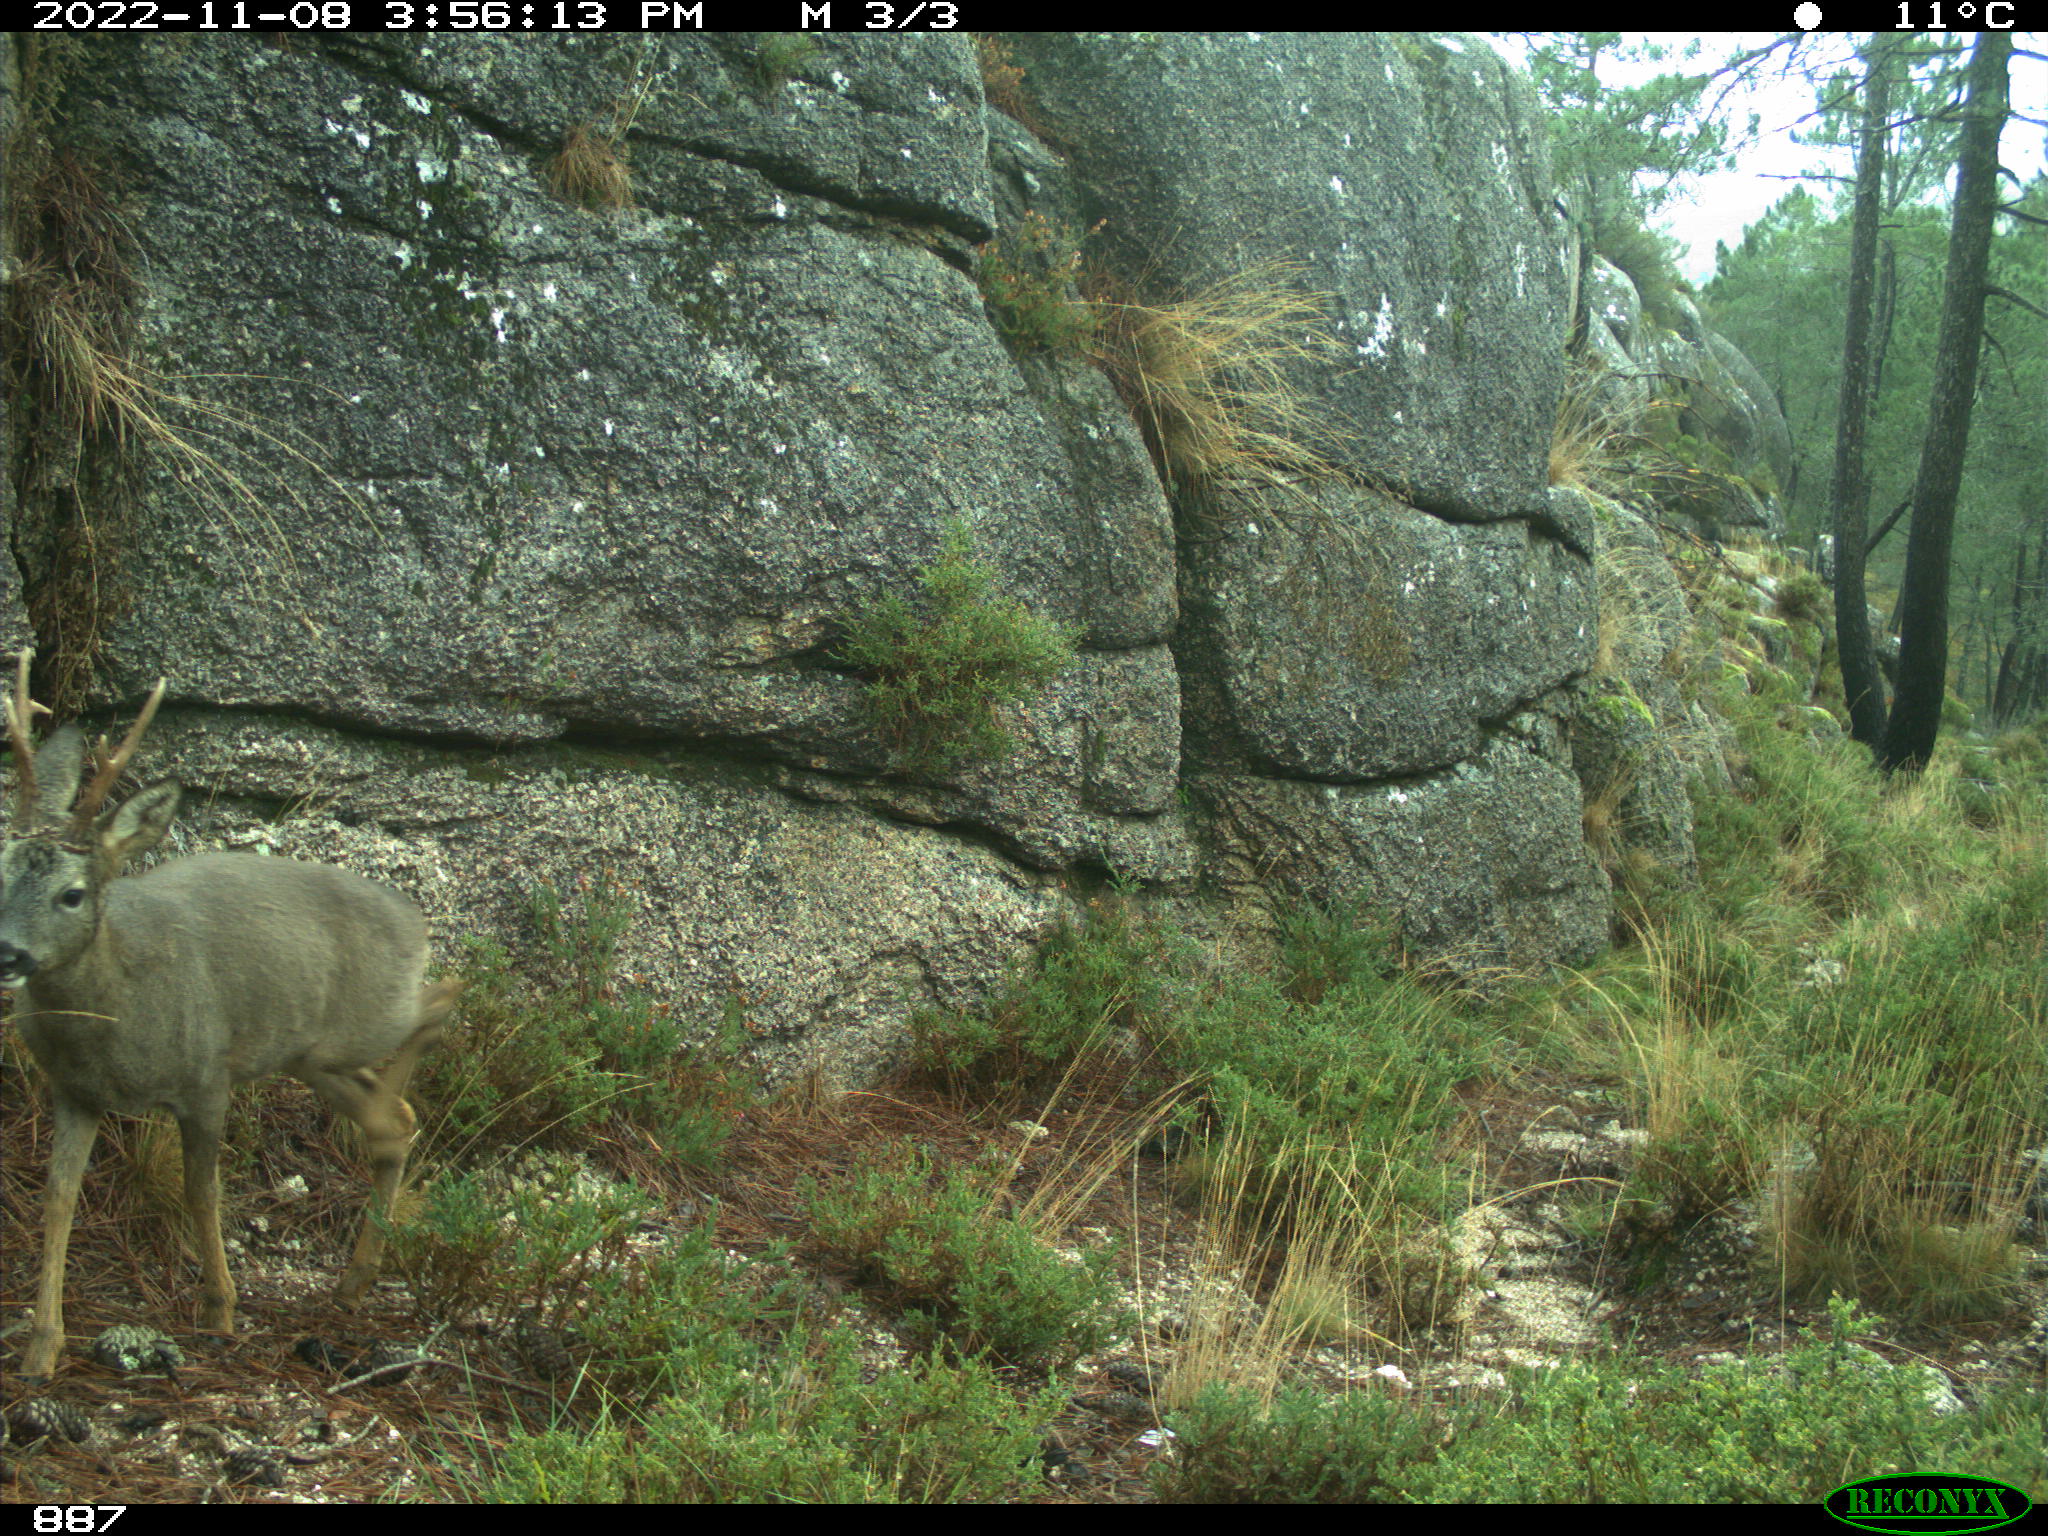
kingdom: Animalia
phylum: Chordata
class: Mammalia
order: Artiodactyla
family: Cervidae
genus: Capreolus
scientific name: Capreolus capreolus
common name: Western roe deer
